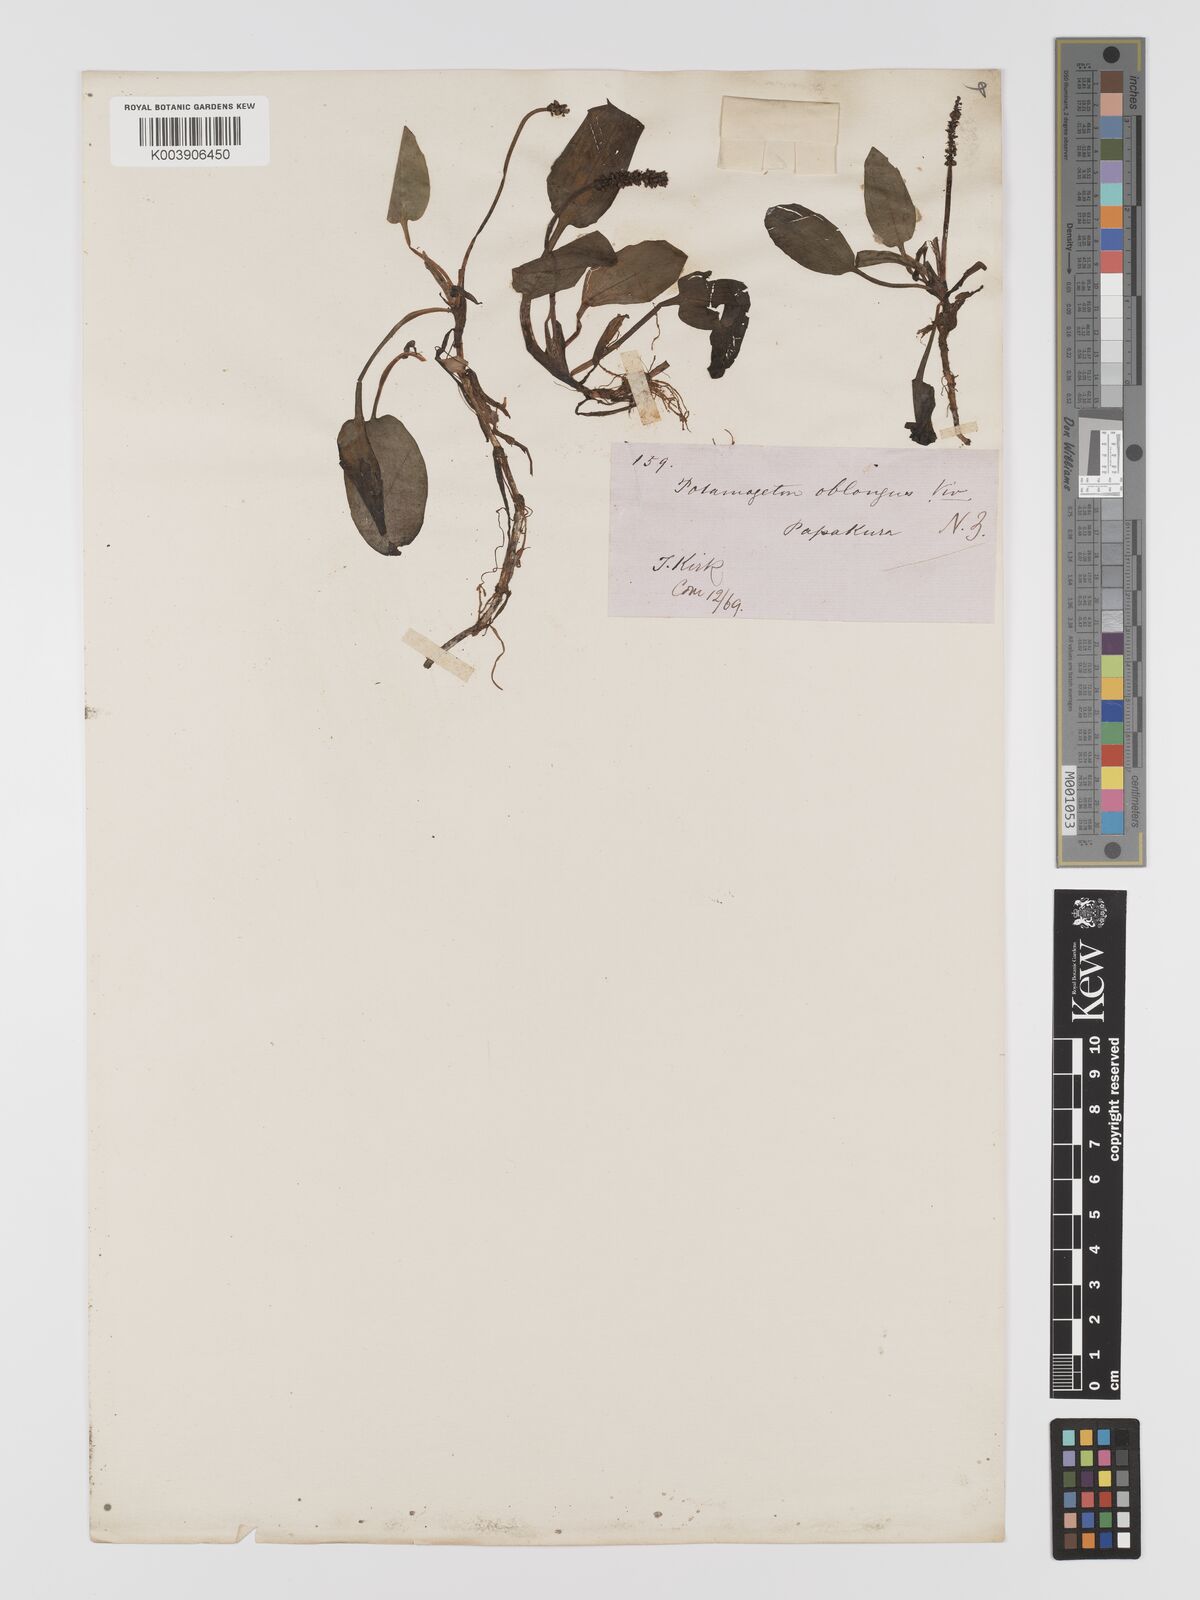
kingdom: Plantae
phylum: Tracheophyta
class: Liliopsida
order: Alismatales
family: Potamogetonaceae
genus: Potamogeton
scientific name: Potamogeton suboblongus
